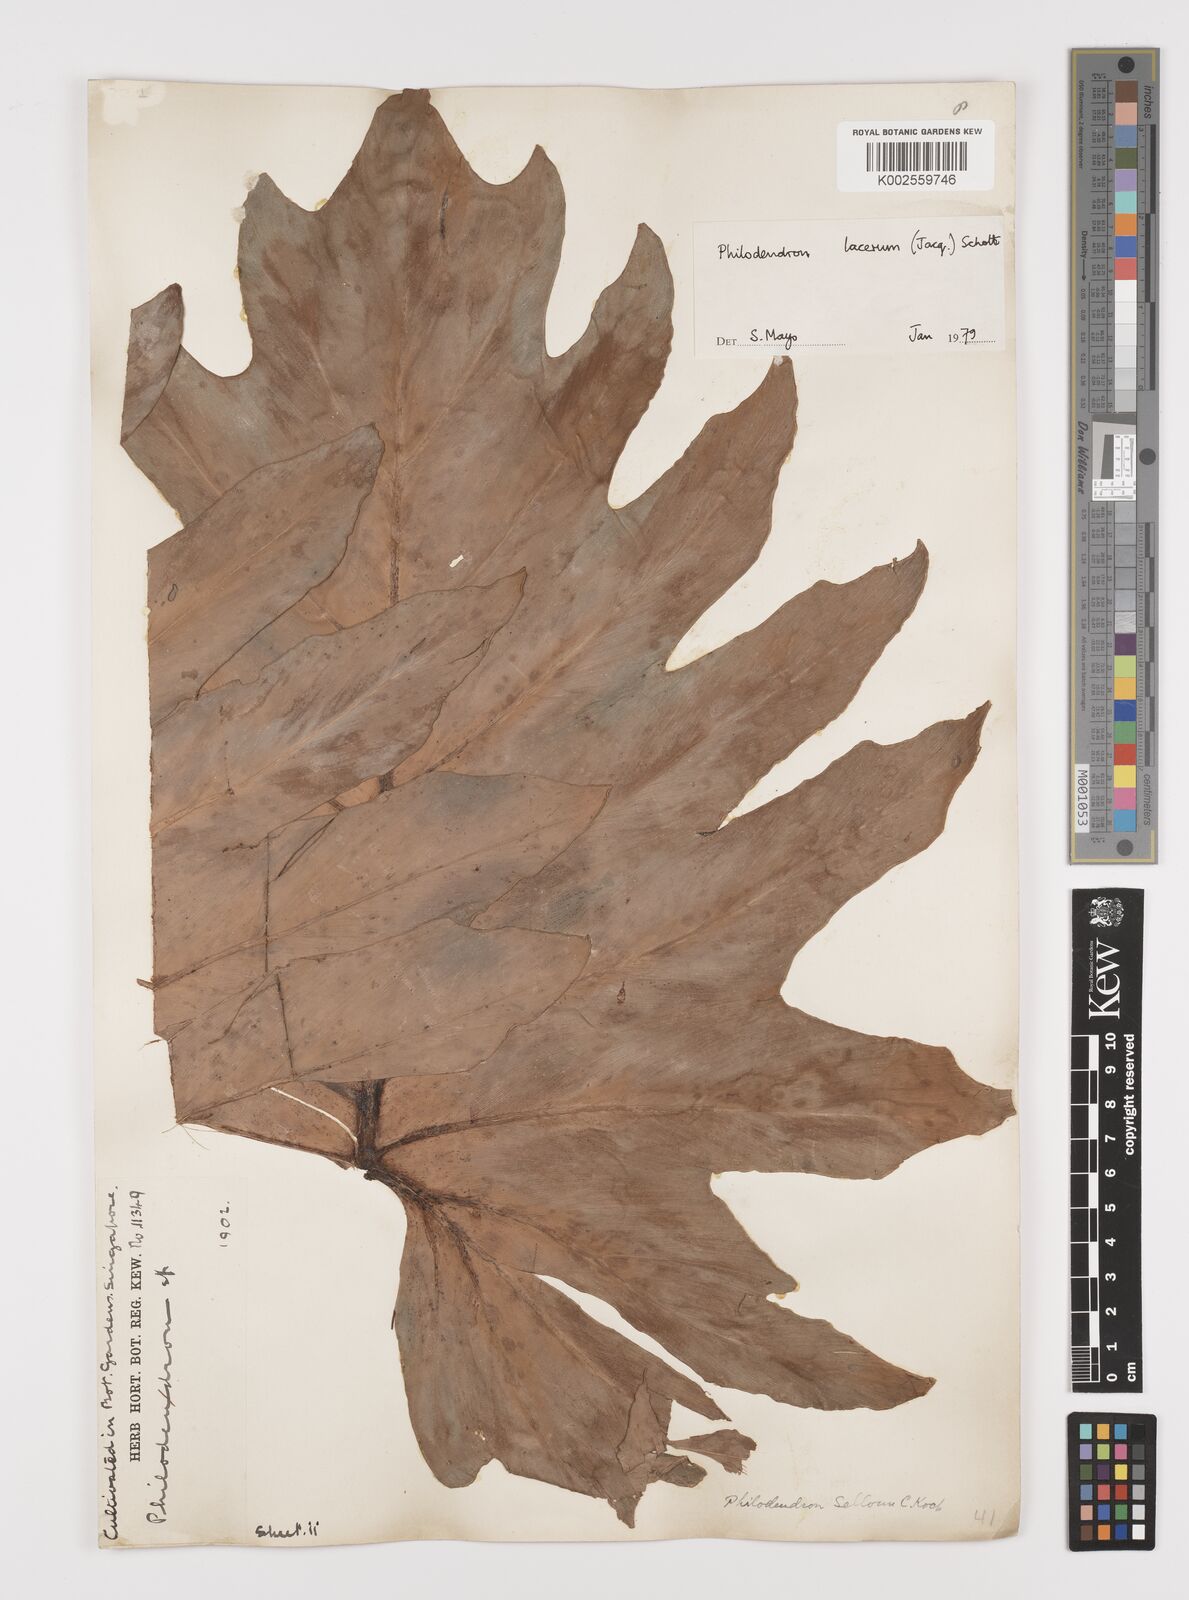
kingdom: Plantae
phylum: Tracheophyta
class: Liliopsida
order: Alismatales
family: Araceae
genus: Philodendron
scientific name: Philodendron lacerum
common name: Philodendron
